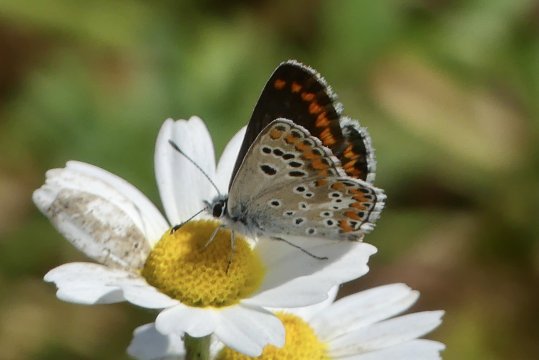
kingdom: Animalia
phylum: Arthropoda
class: Insecta
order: Lepidoptera
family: Lycaenidae
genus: Aricia
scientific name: Aricia cramera
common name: Southern Brown Argus
